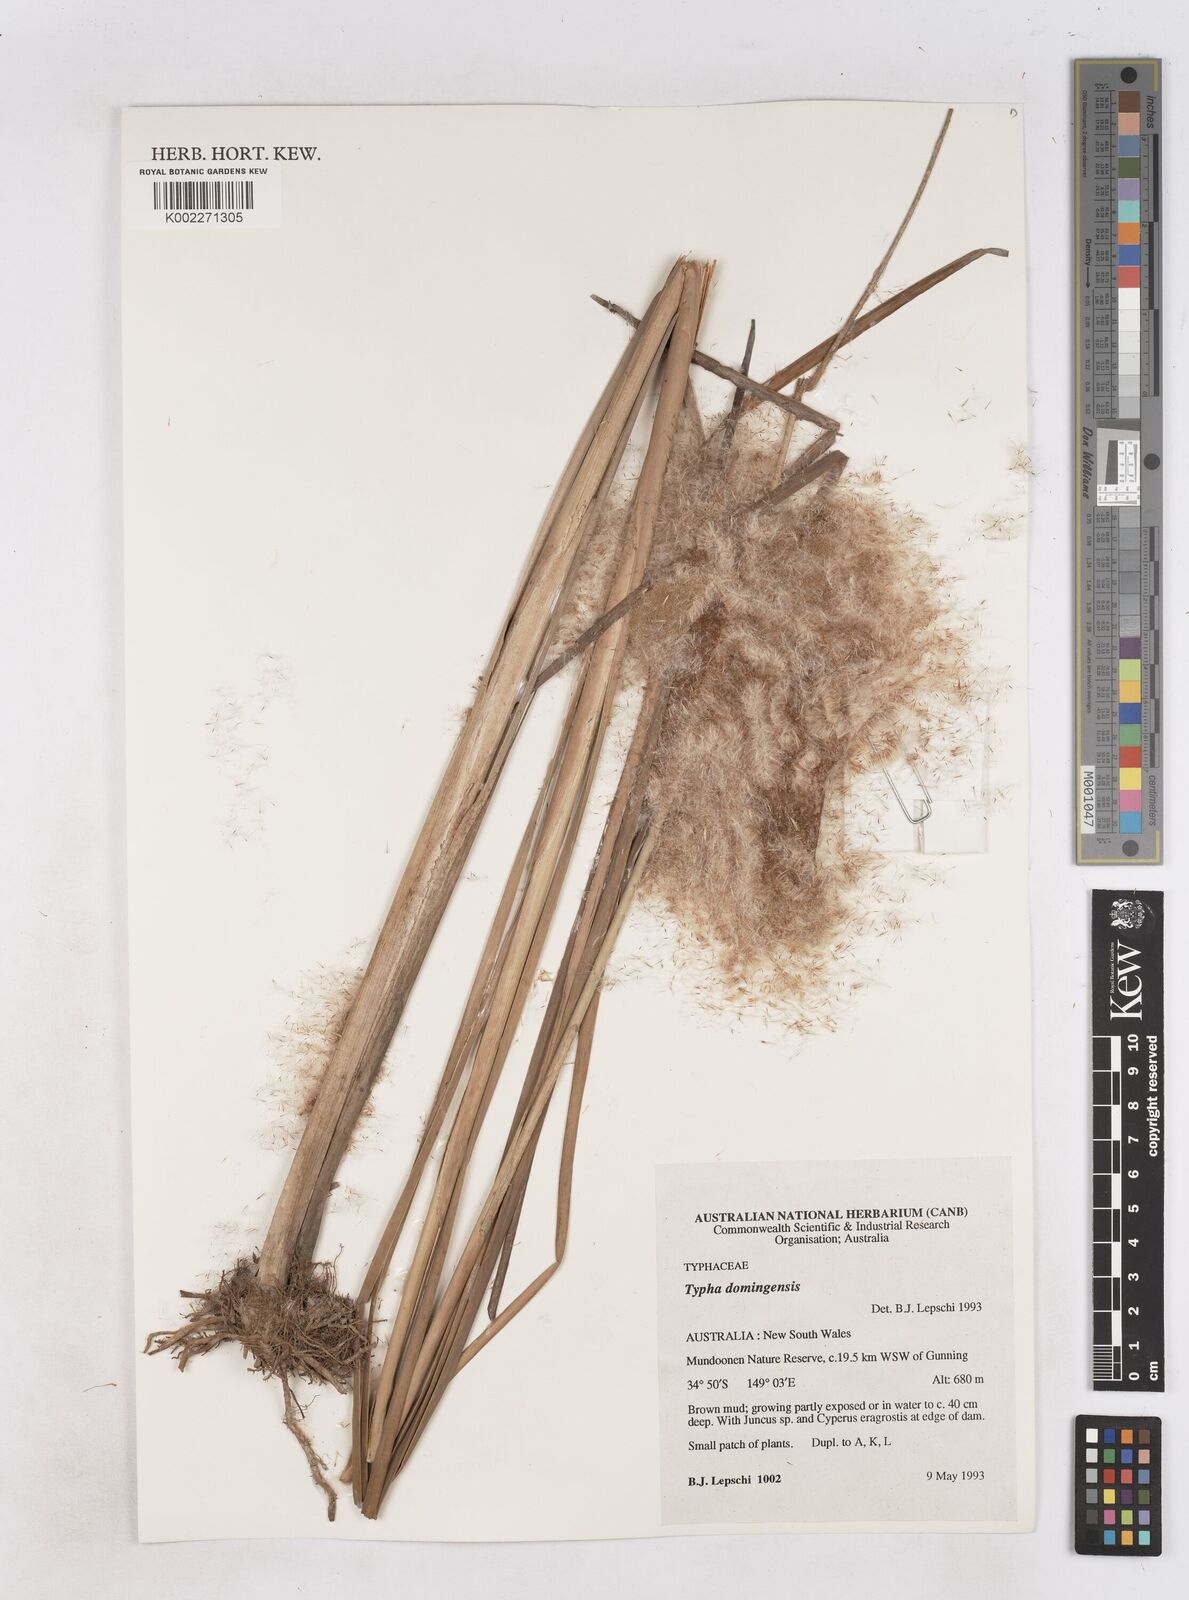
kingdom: Plantae
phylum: Tracheophyta
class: Liliopsida
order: Poales
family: Typhaceae
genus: Typha
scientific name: Typha domingensis
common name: Southern cattail
